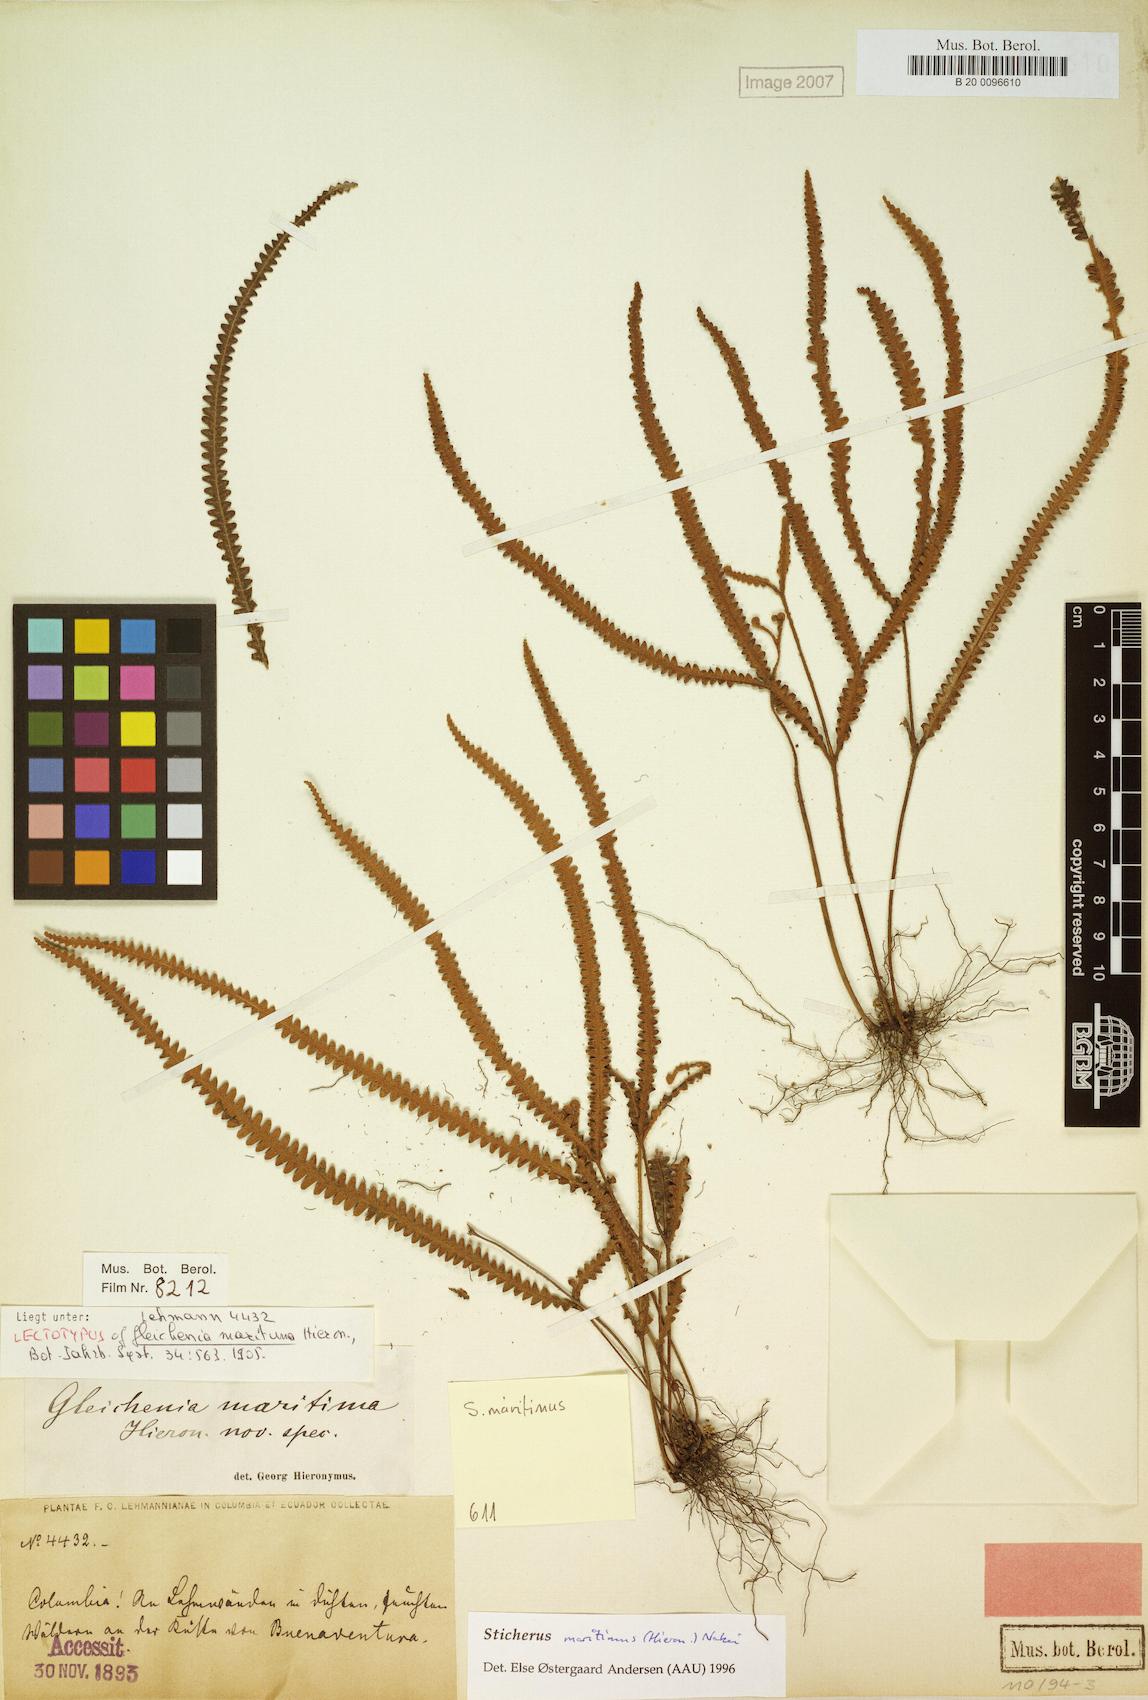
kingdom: Plantae
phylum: Tracheophyta
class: Polypodiopsida
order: Gleicheniales
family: Gleicheniaceae
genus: Sticherus
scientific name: Sticherus maritimus
